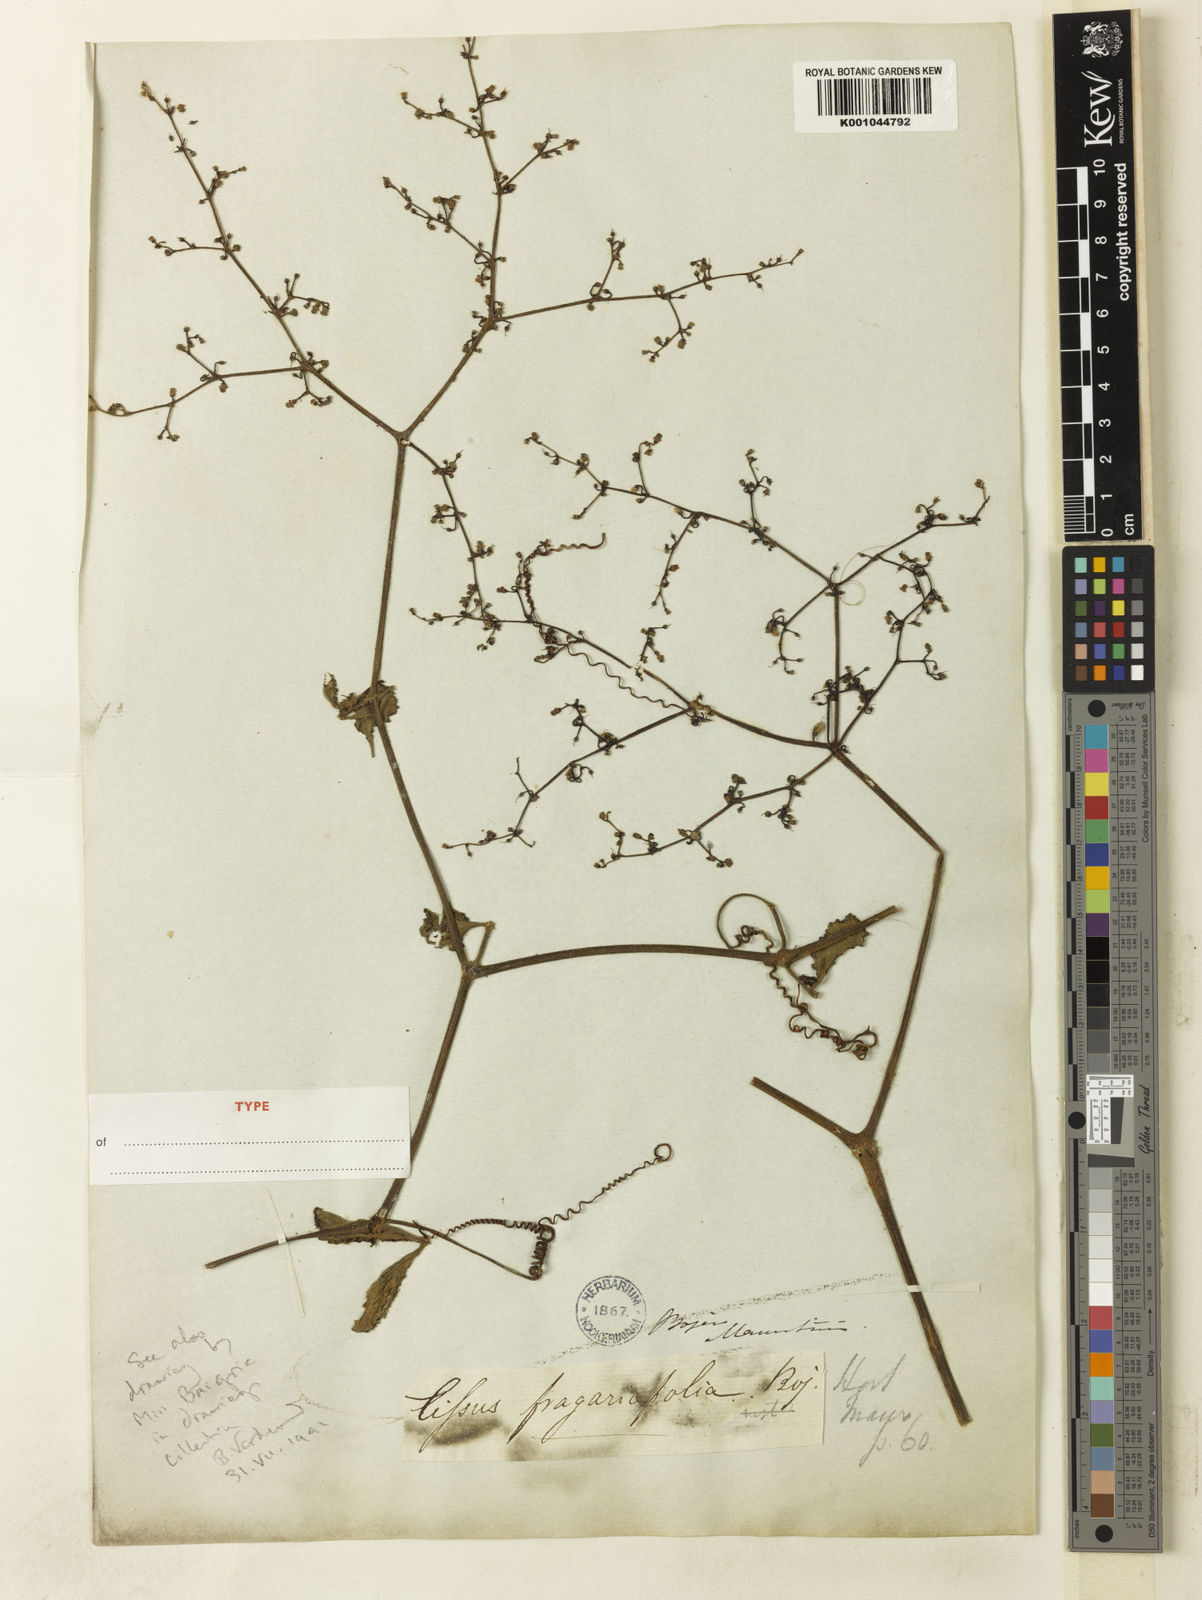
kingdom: Plantae
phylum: Tracheophyta
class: Magnoliopsida
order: Vitales
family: Vitaceae
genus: Cyphostemma
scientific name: Cyphostemma fragariifolium
